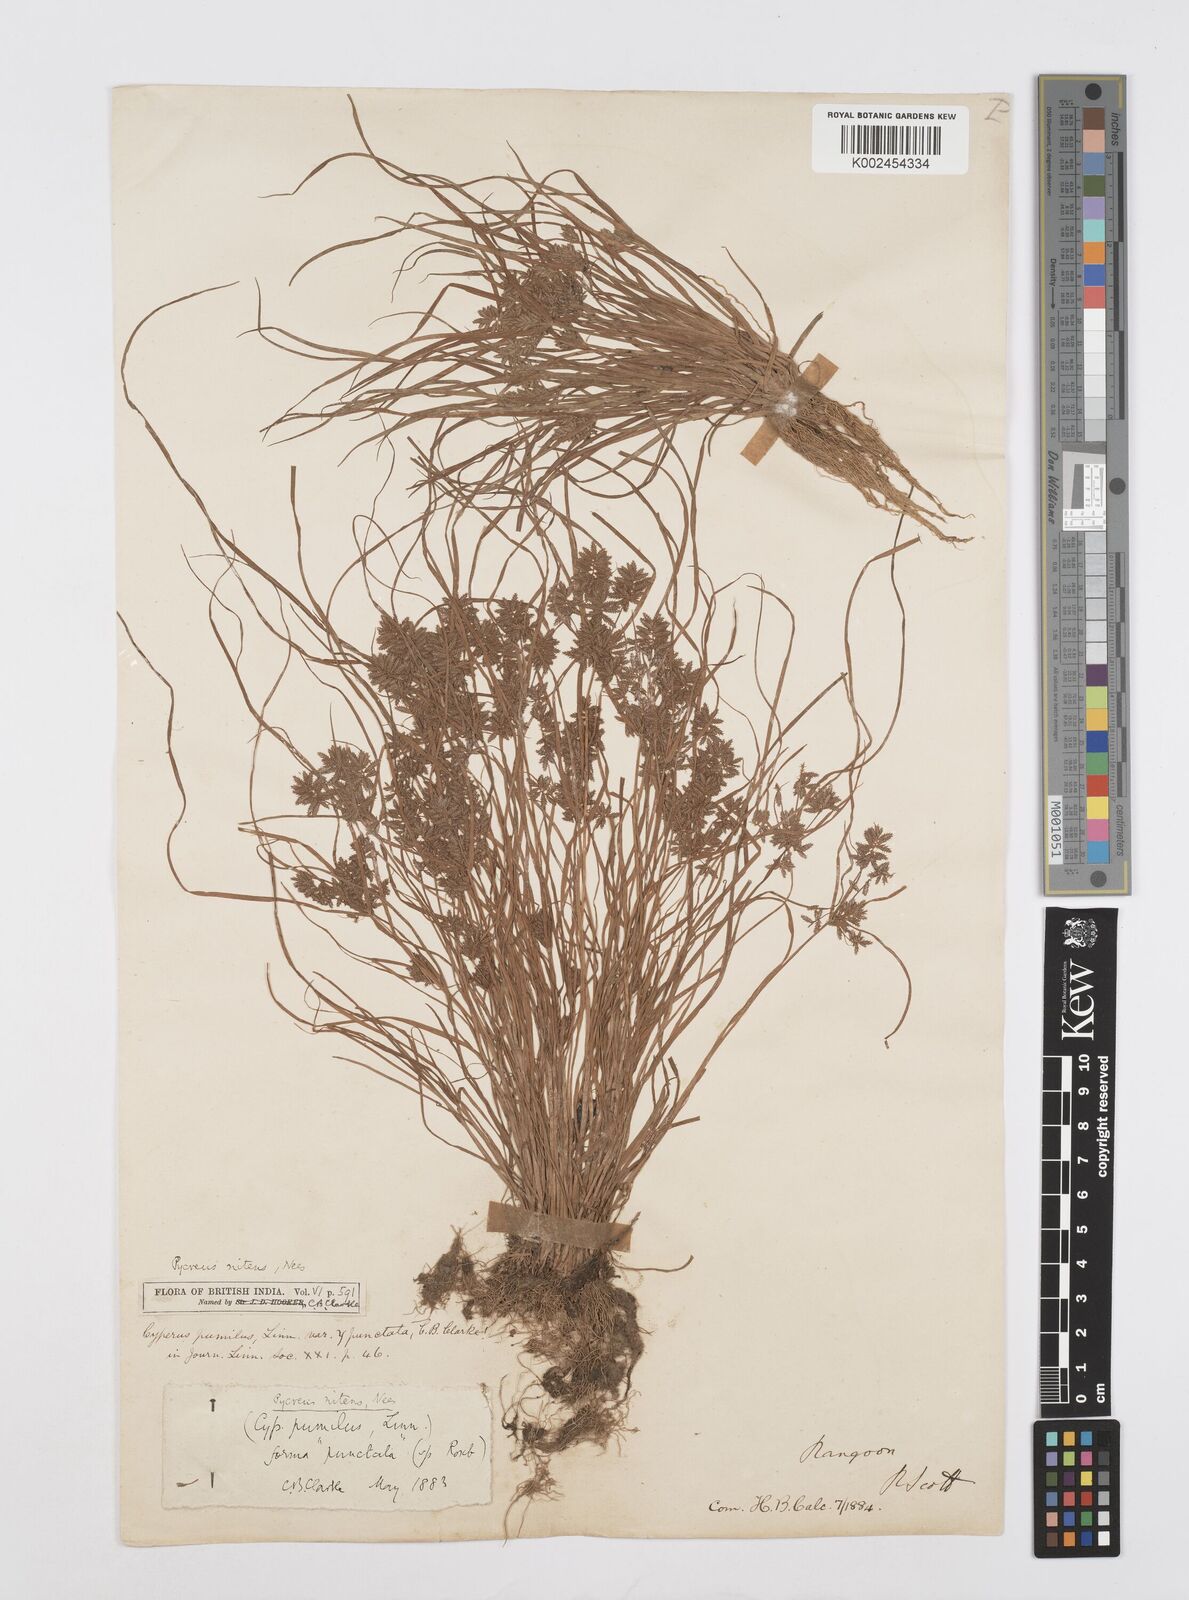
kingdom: Plantae
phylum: Tracheophyta
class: Liliopsida
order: Poales
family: Cyperaceae
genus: Cyperus
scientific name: Cyperus pumilus
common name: Low flatsedge
